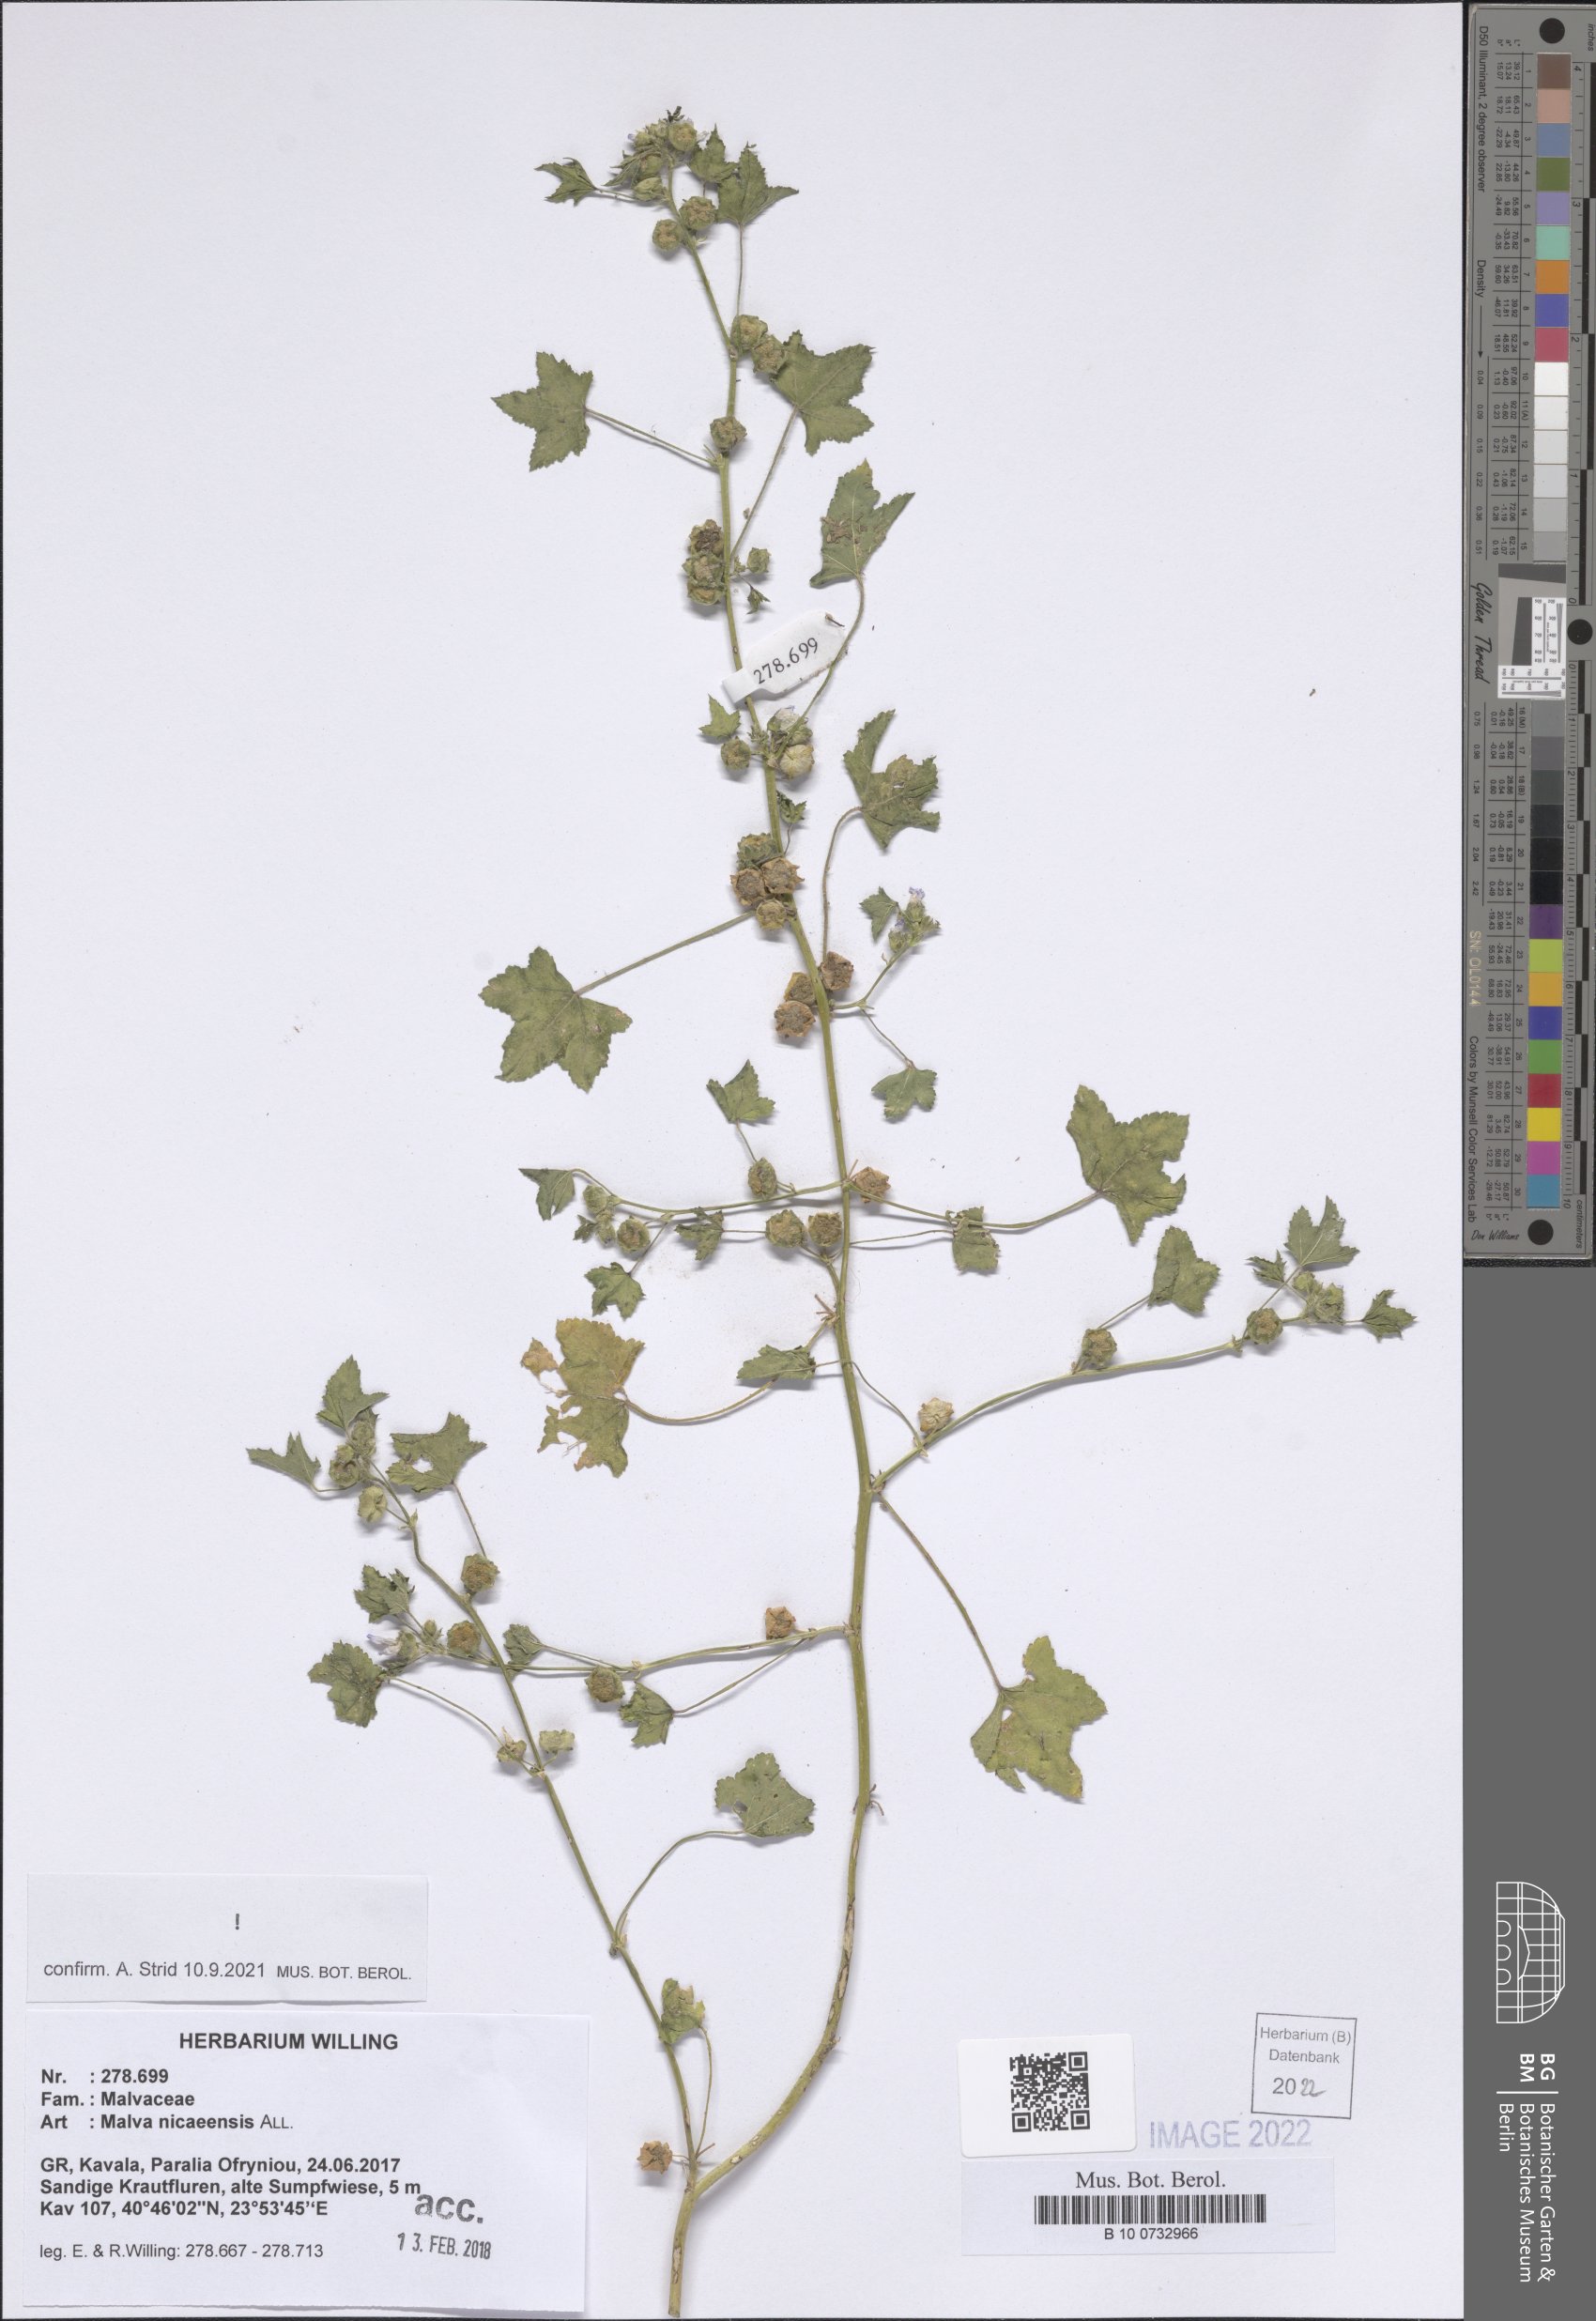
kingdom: Plantae
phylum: Tracheophyta
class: Magnoliopsida
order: Malvales
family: Malvaceae
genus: Malva
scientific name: Malva nicaeensis
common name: French mallow
